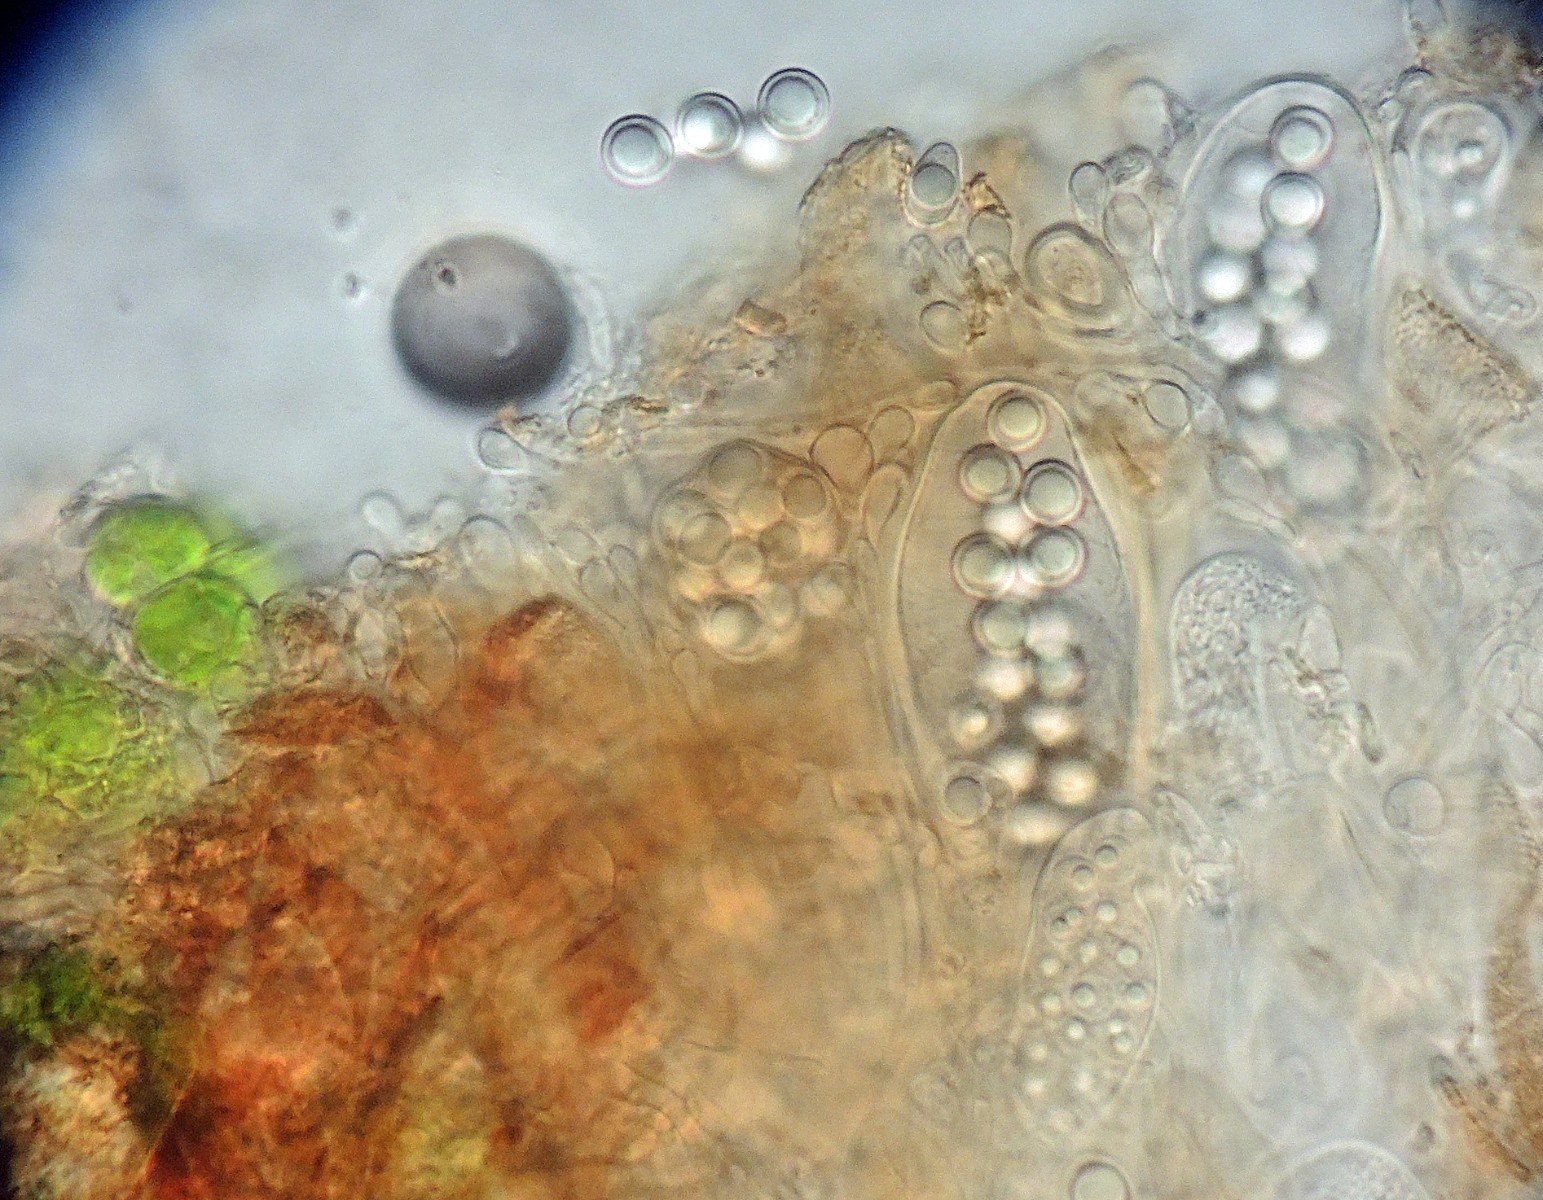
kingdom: Fungi
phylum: Ascomycota
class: Lecanoromycetes
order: Lecanorales
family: Aphanopsidaceae
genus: Steinia
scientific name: Steinia geophana
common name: liden jordlav
